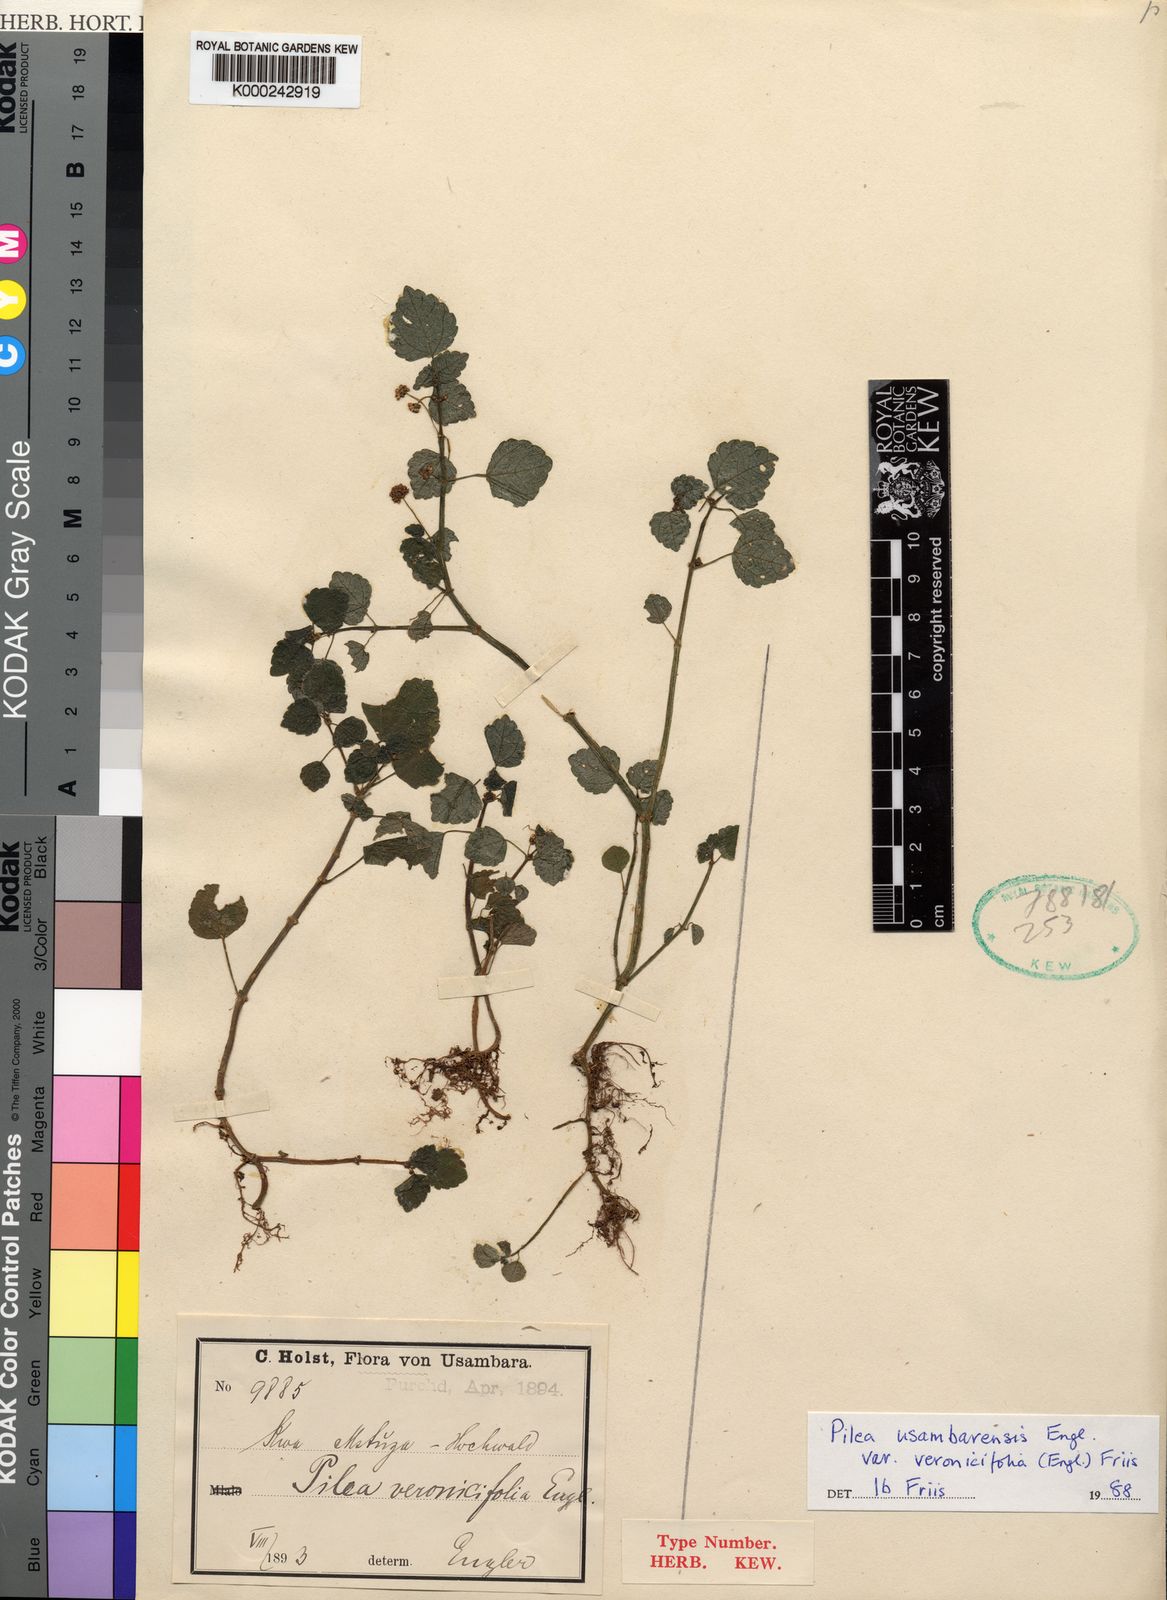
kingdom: Plantae
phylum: Tracheophyta
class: Magnoliopsida
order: Rosales
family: Urticaceae
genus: Pilea
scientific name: Pilea usambarensis
